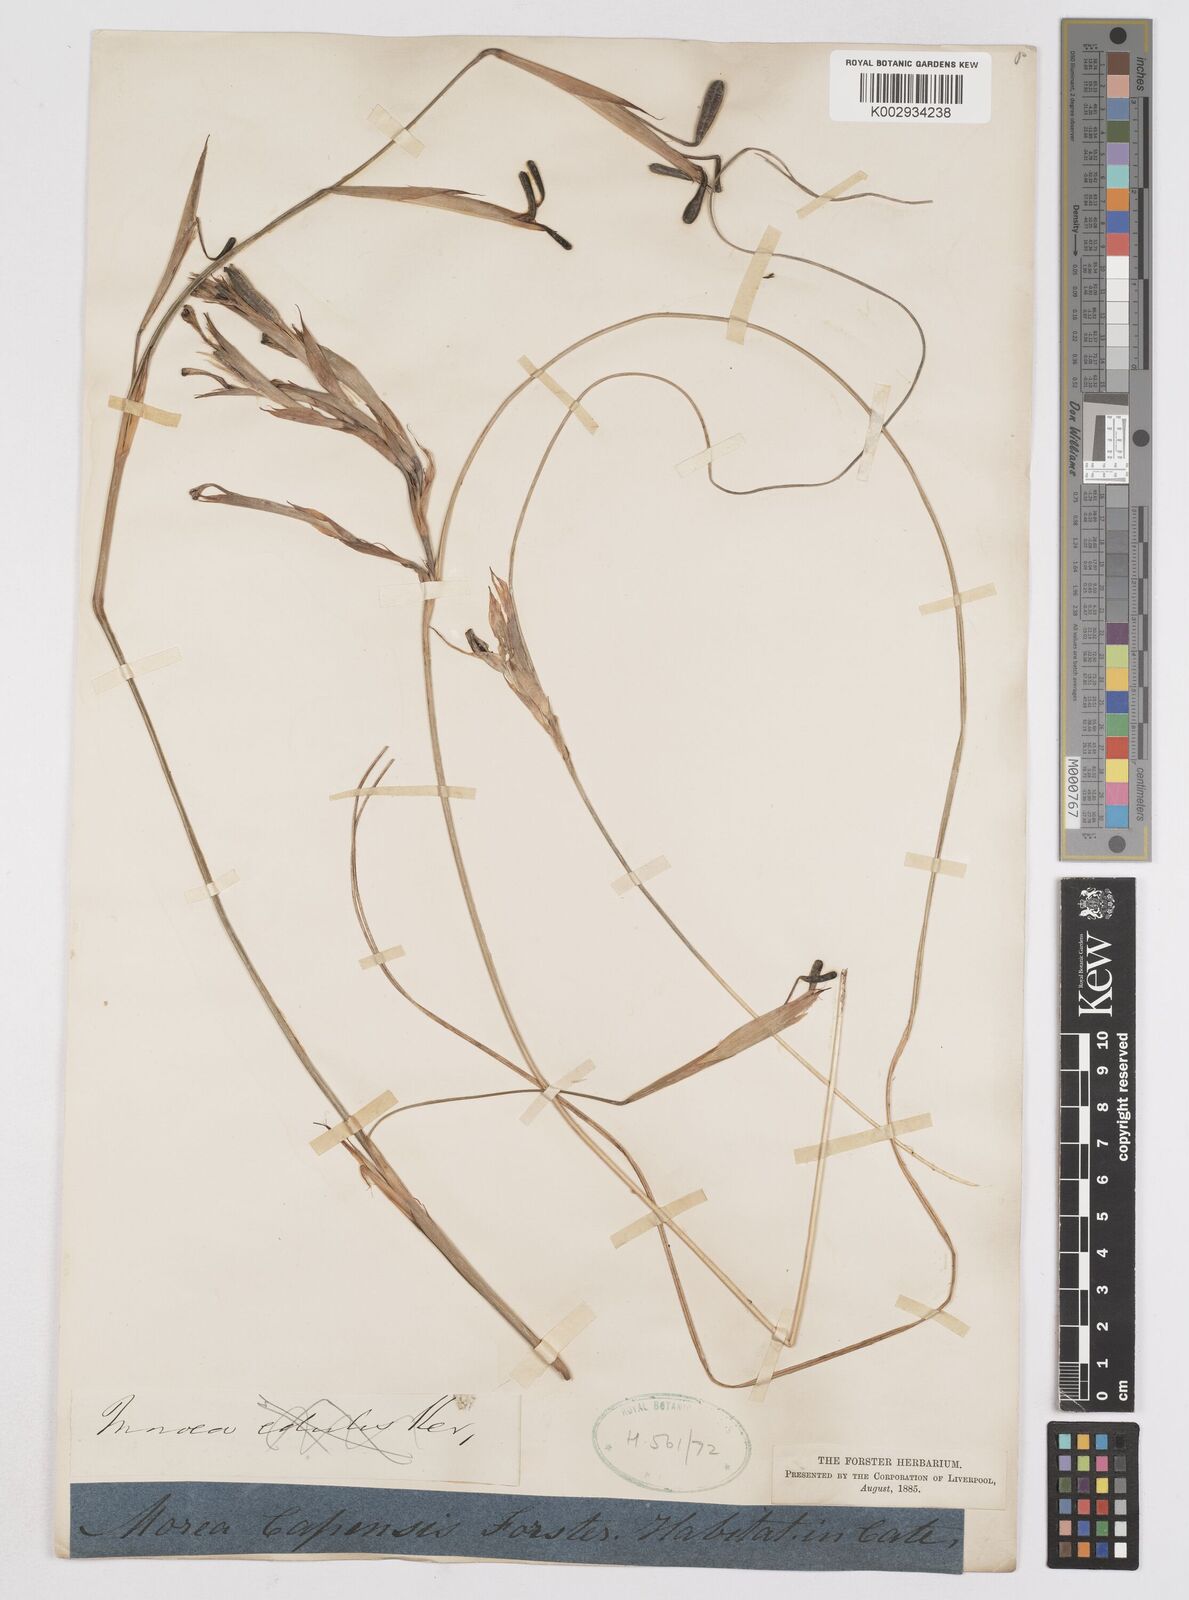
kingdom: Plantae
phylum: Tracheophyta
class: Liliopsida
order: Asparagales
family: Iridaceae
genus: Moraea
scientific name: Moraea fugax
